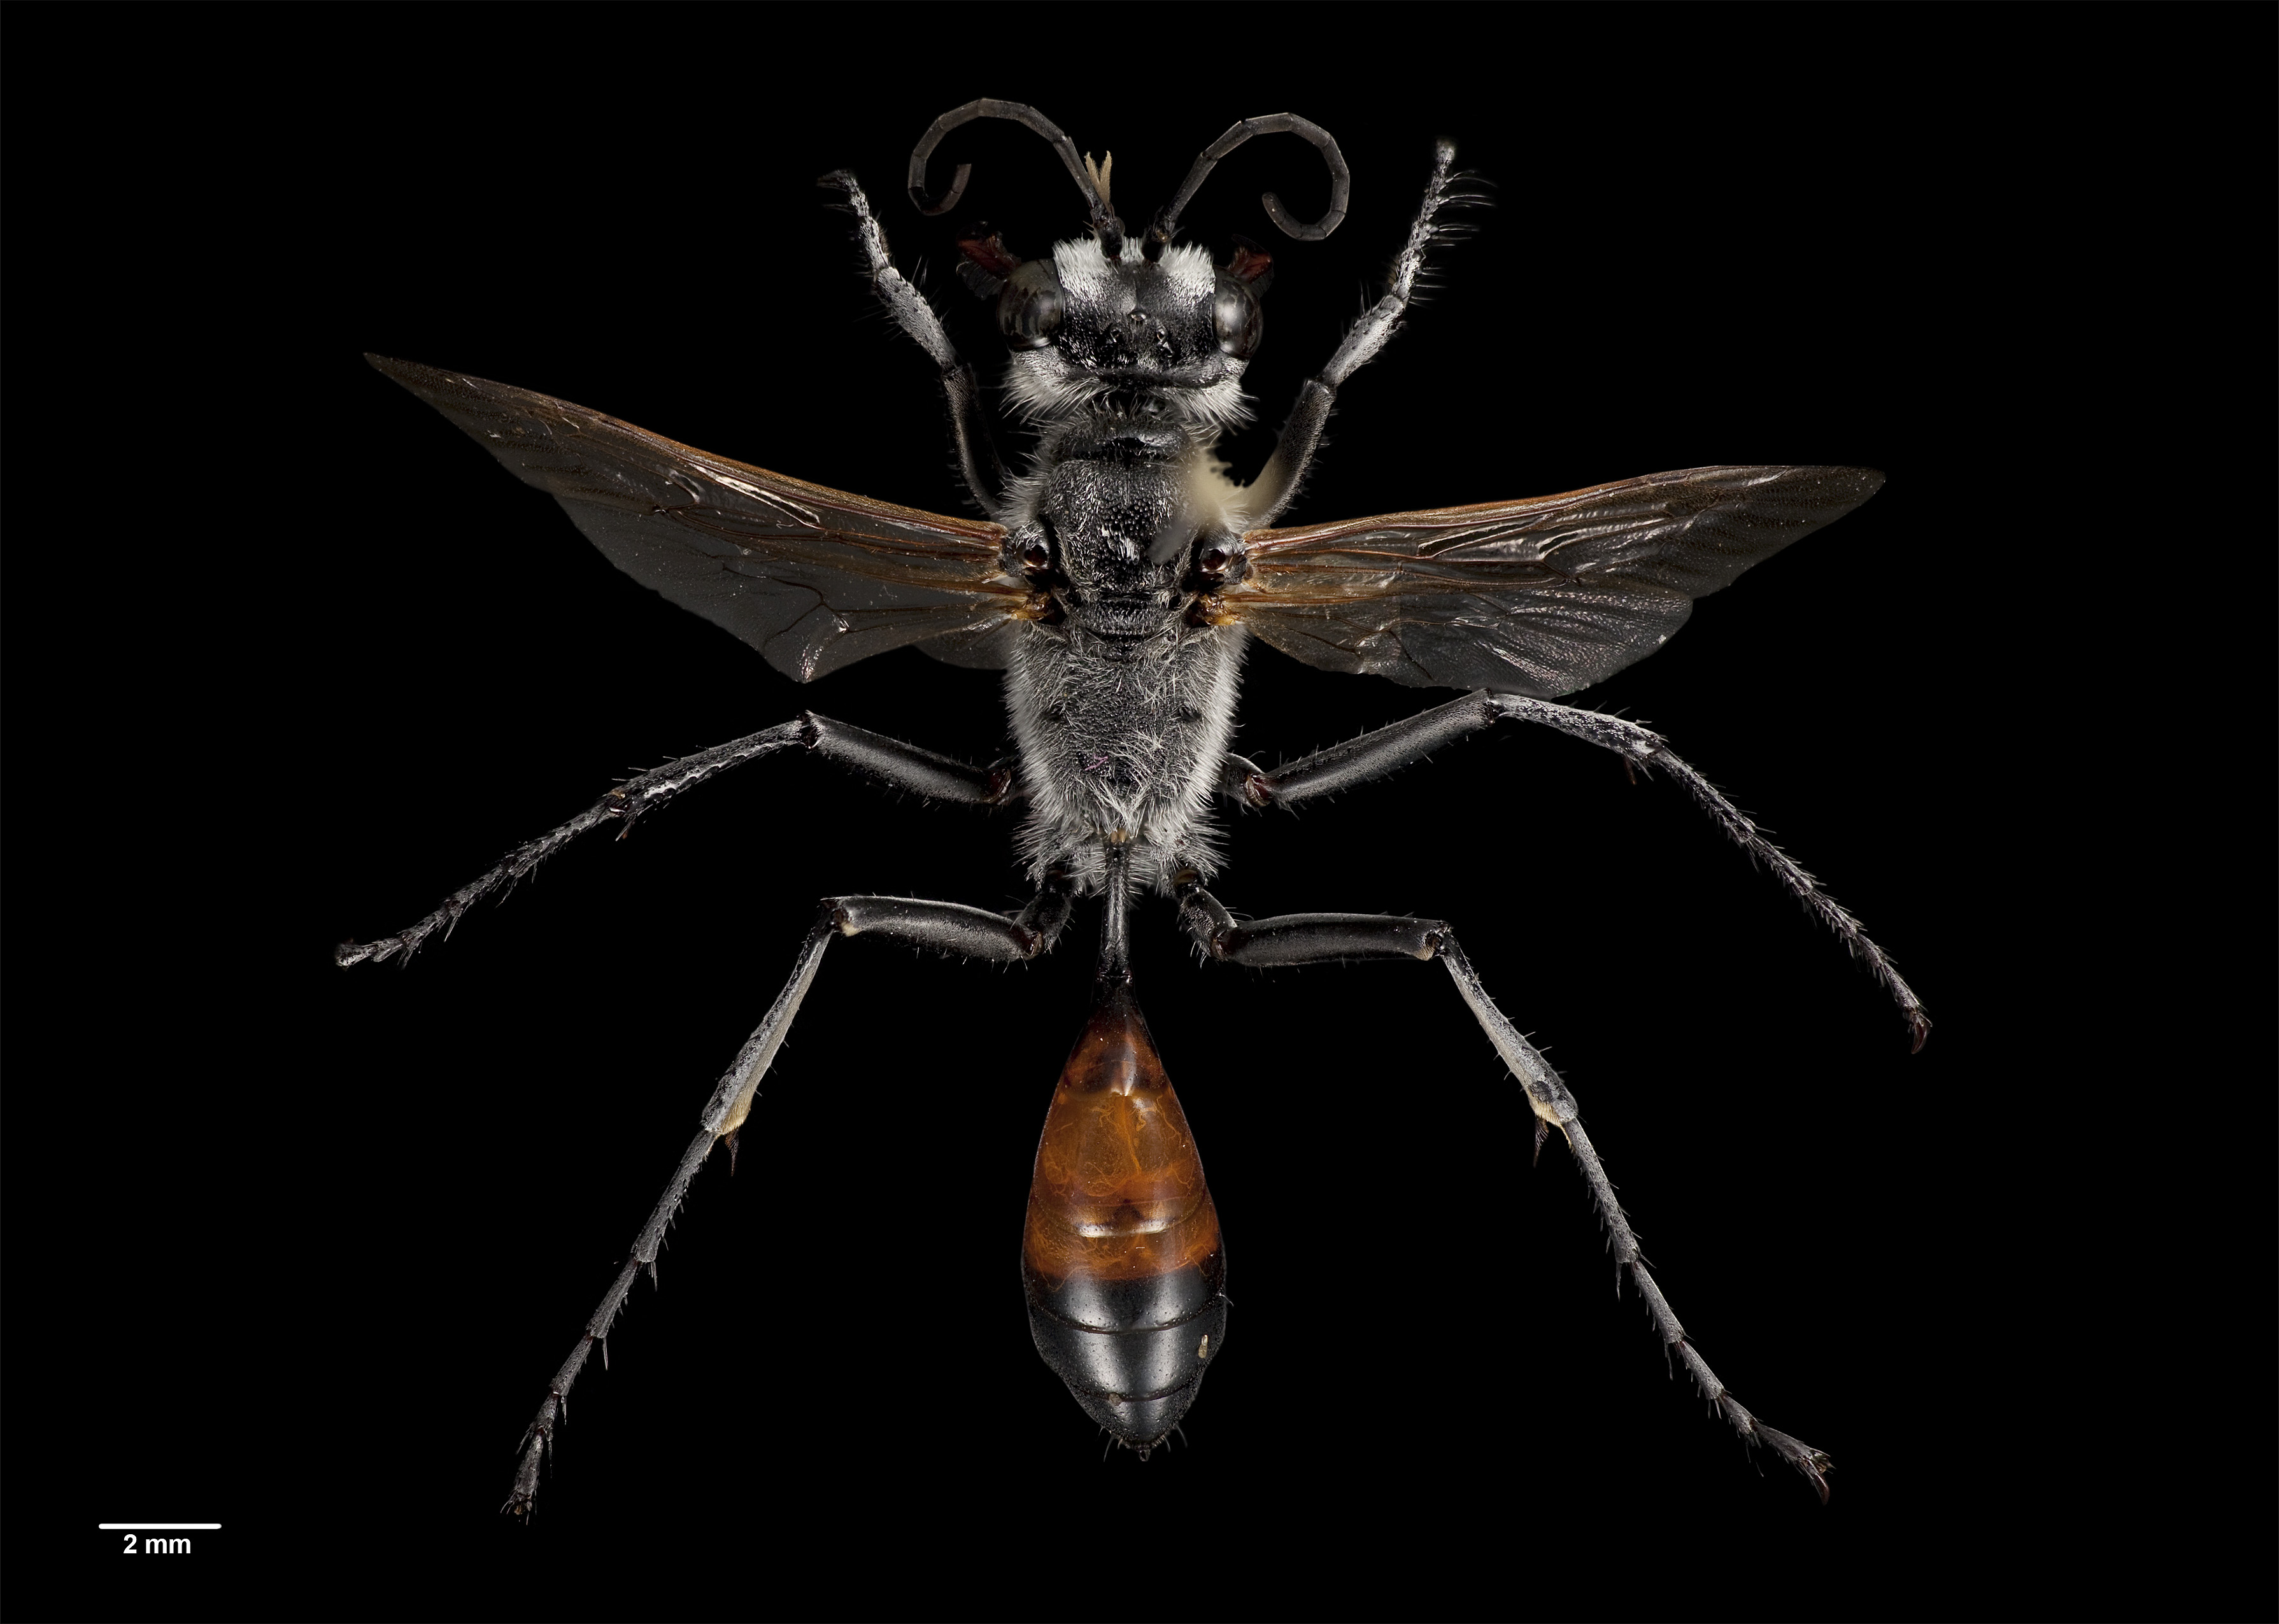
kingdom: Animalia
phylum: Arthropoda
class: Insecta
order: Hymenoptera
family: Sphecidae
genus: Podalonia
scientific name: Podalonia tydei
